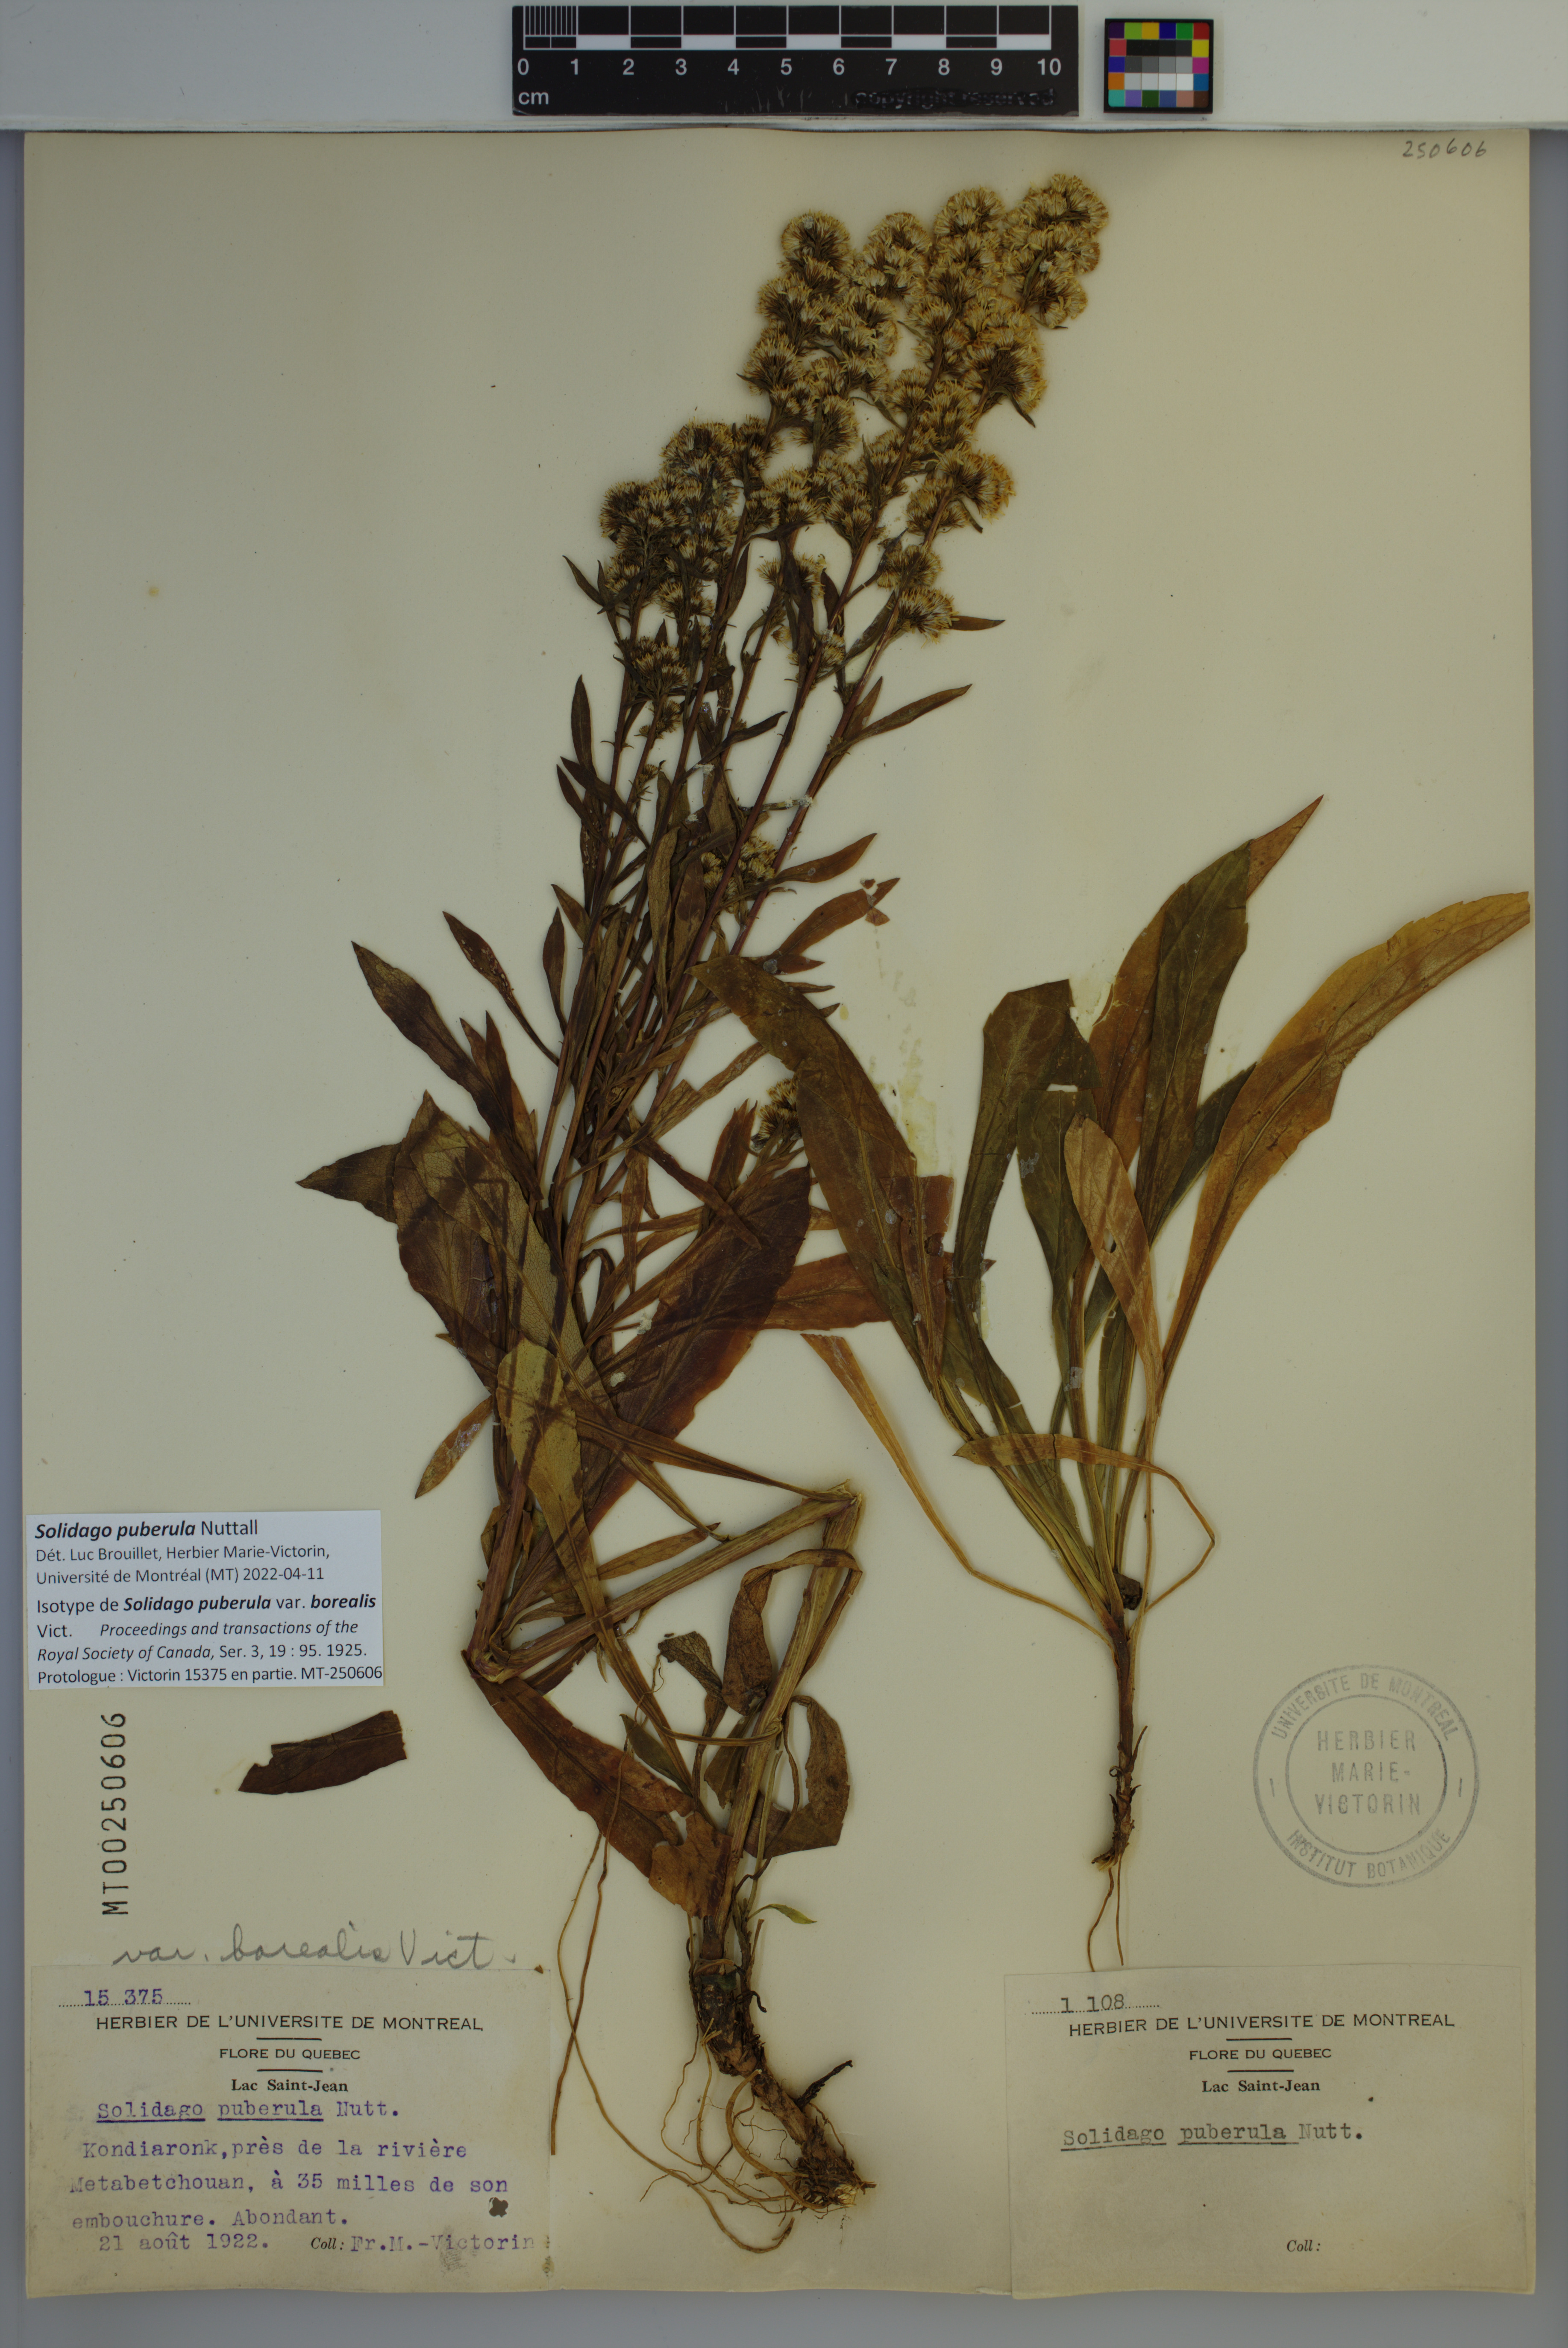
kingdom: Plantae
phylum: Tracheophyta
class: Magnoliopsida
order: Asterales
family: Asteraceae
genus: Solidago
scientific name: Solidago puberula
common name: Downy goldenrod
